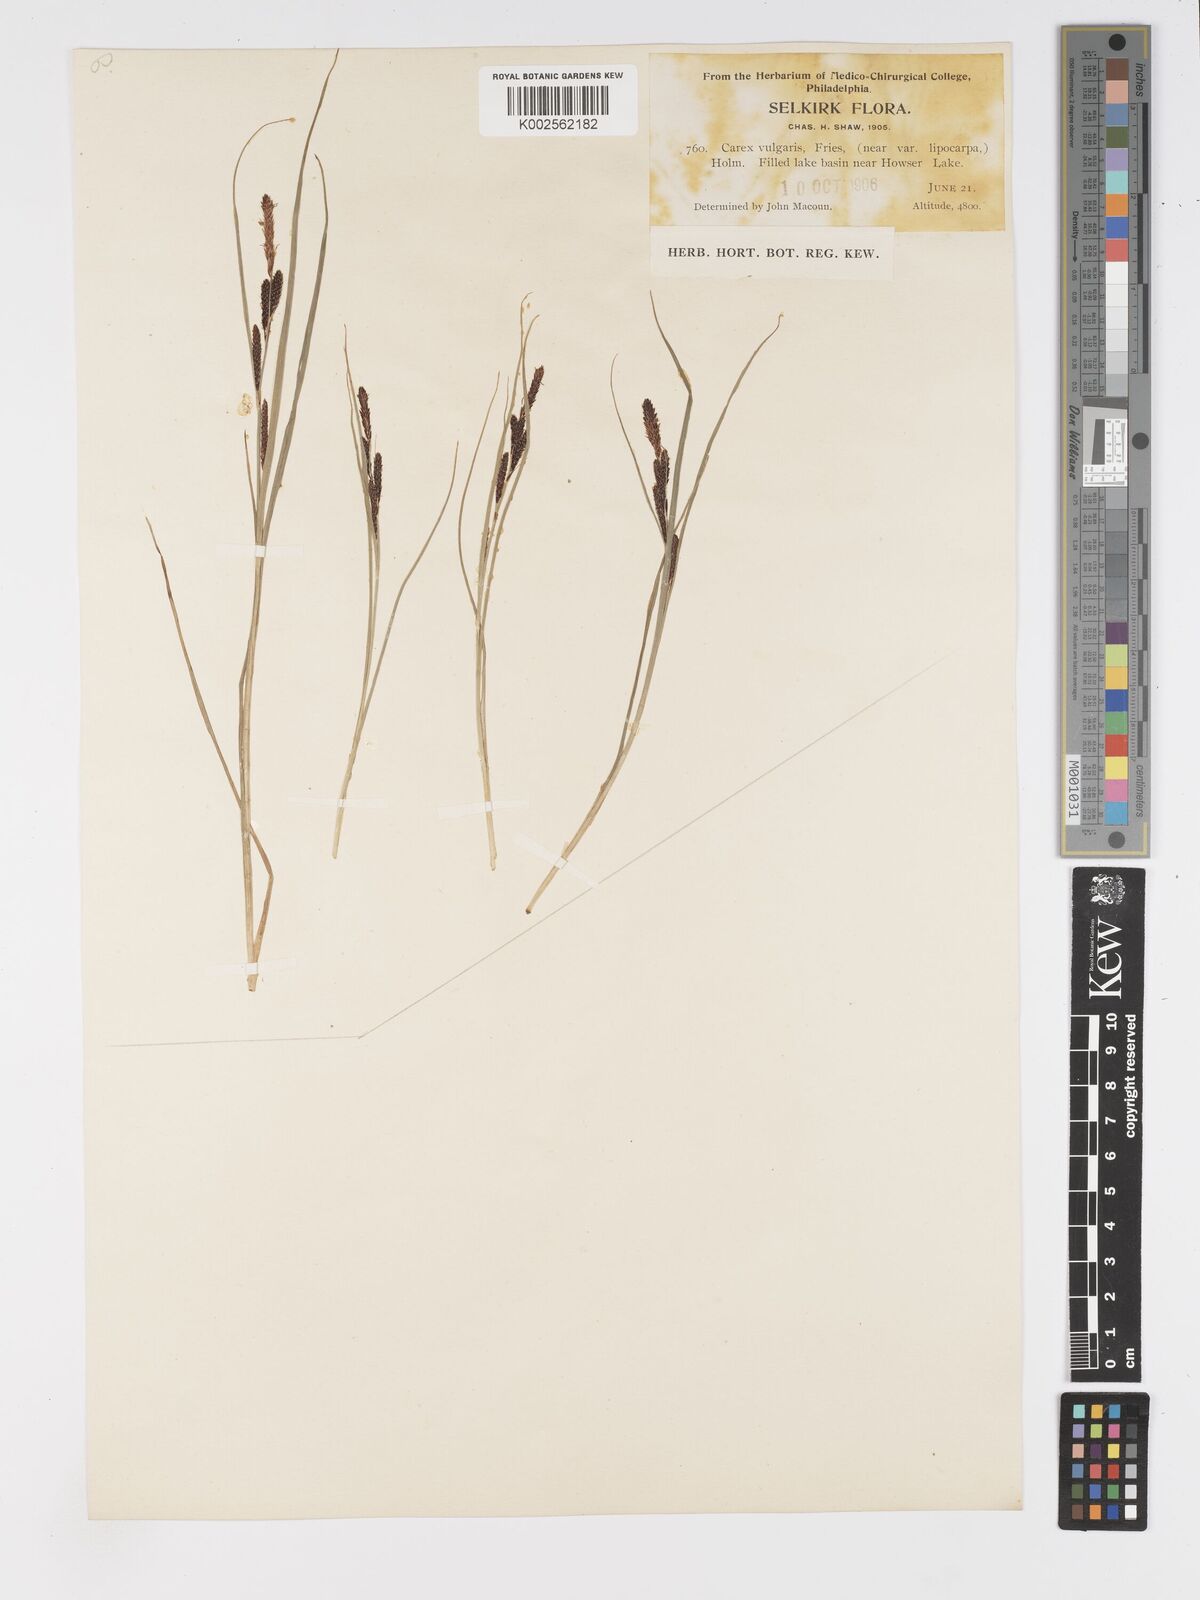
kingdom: Plantae
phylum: Tracheophyta
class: Liliopsida
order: Poales
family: Cyperaceae
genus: Carex
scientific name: Carex nigra
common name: Common sedge
